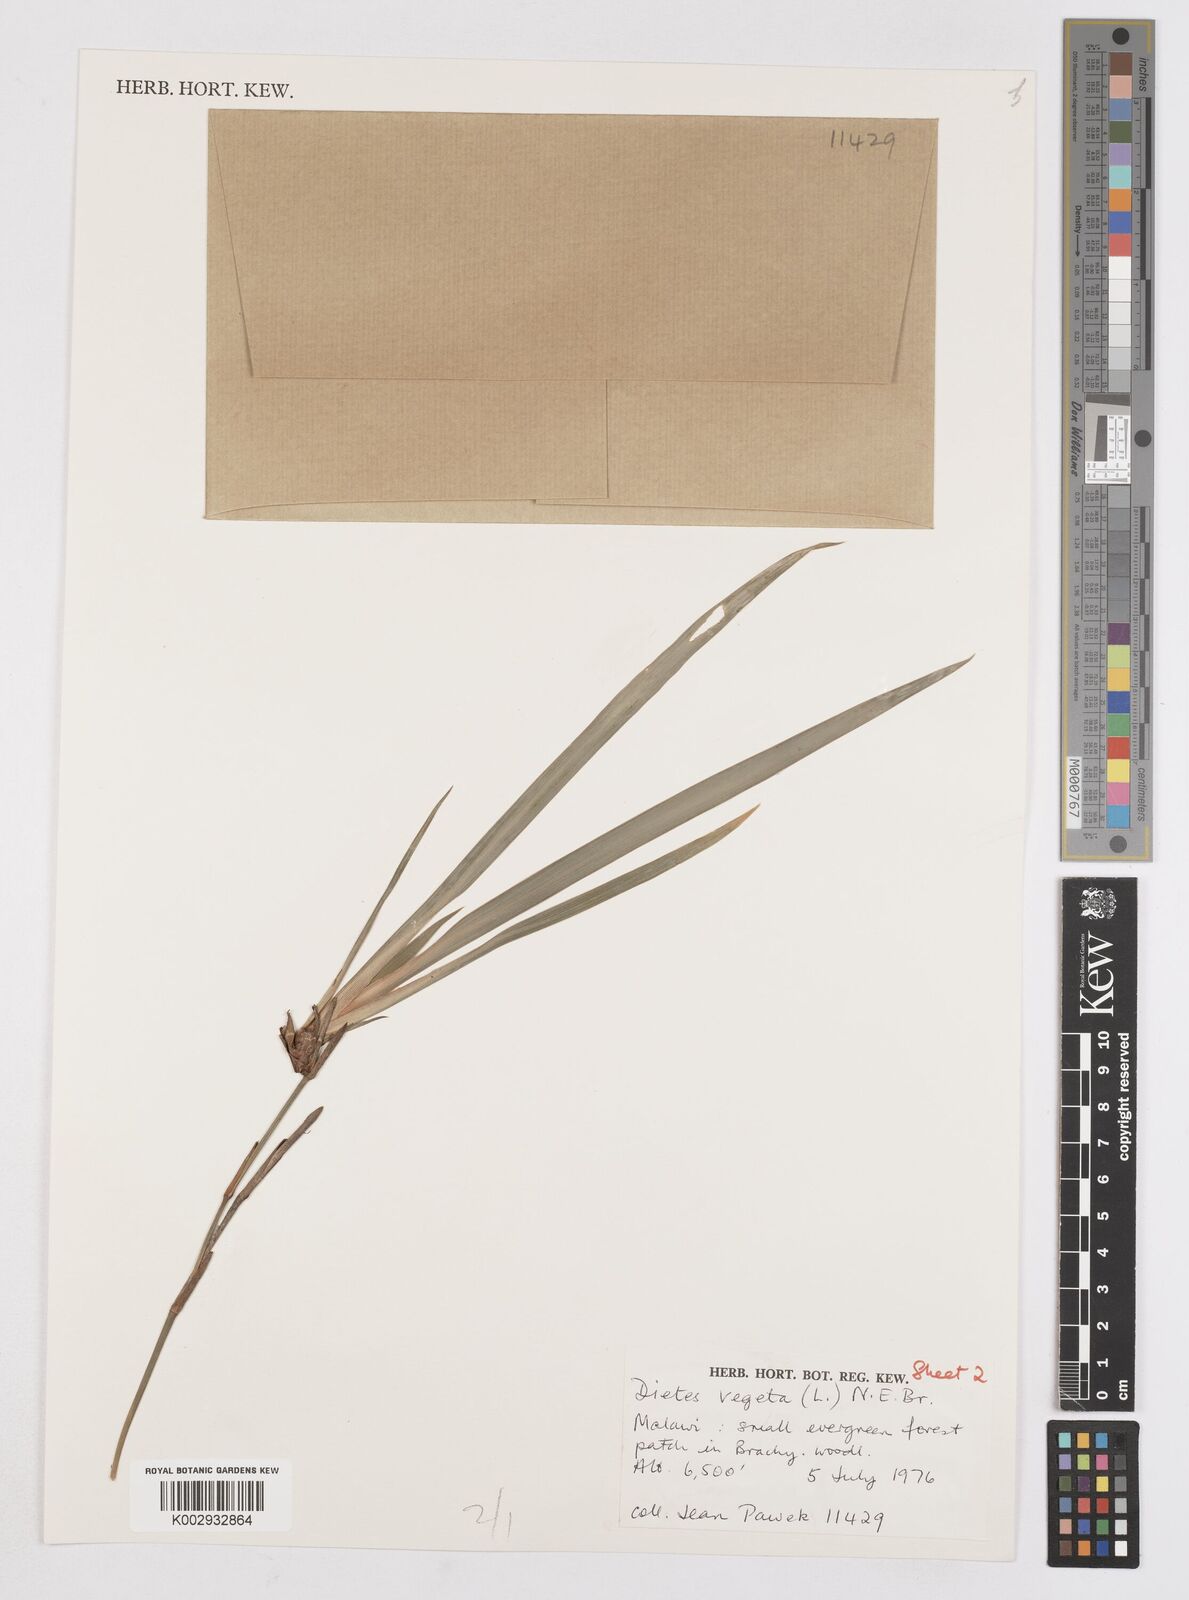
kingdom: Plantae
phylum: Tracheophyta
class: Liliopsida
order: Asparagales
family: Iridaceae
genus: Dietes
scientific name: Dietes iridioides
